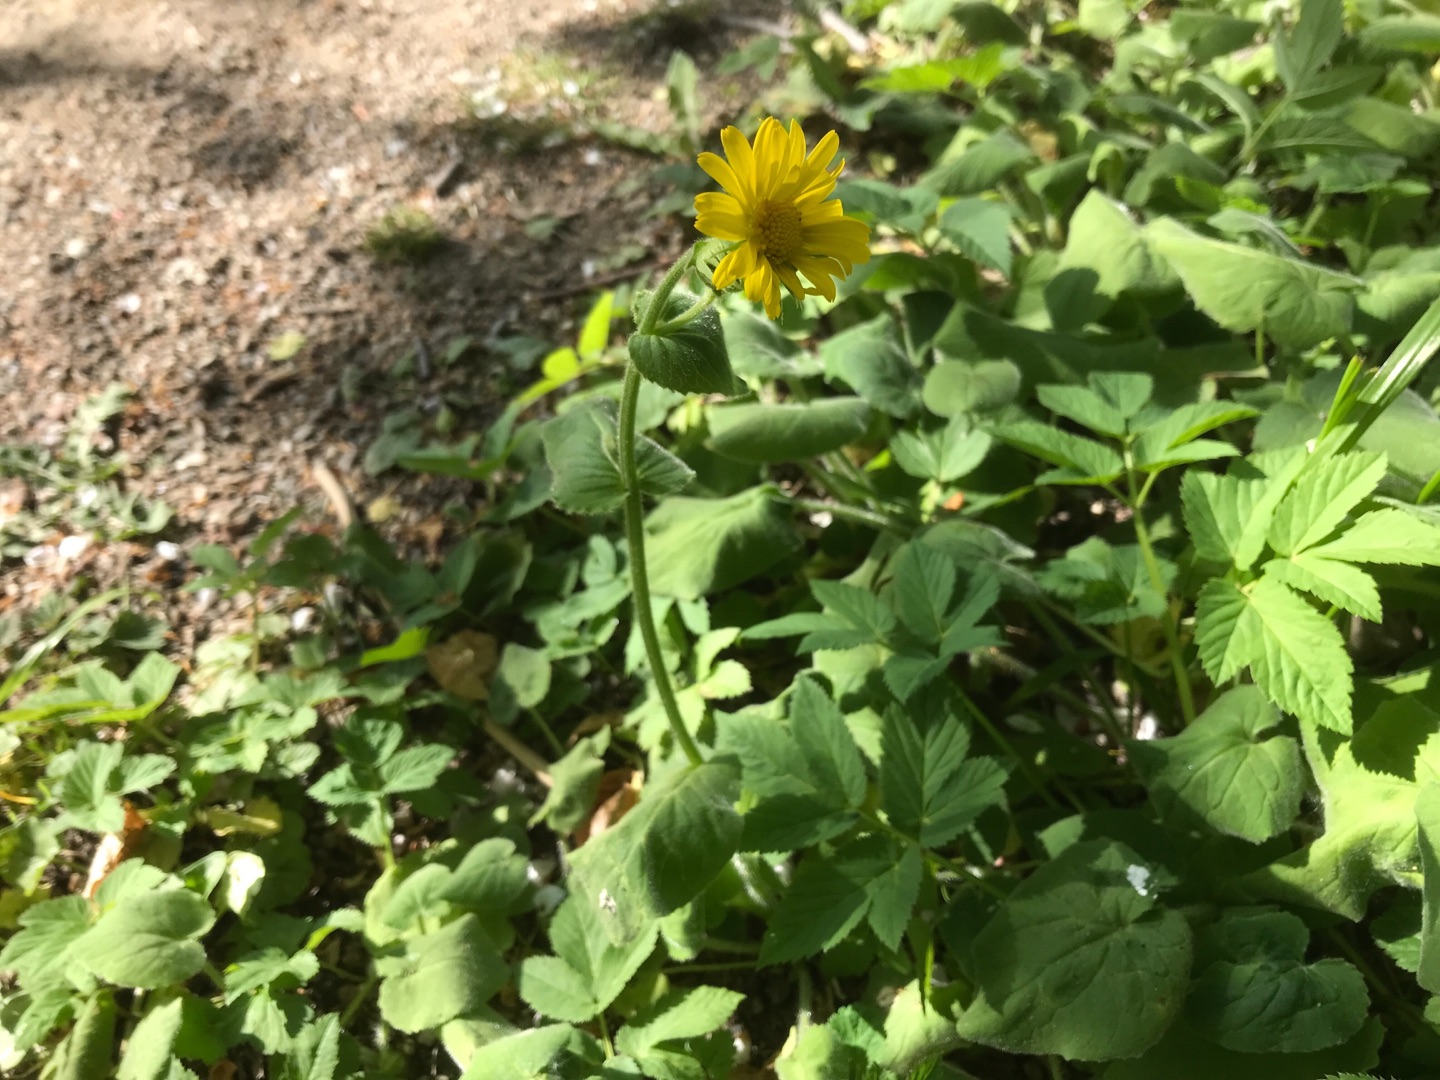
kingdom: Plantae
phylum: Tracheophyta
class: Magnoliopsida
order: Asterales
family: Asteraceae
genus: Doronicum
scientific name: Doronicum pardalianches
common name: Hjertebladet gemserod
